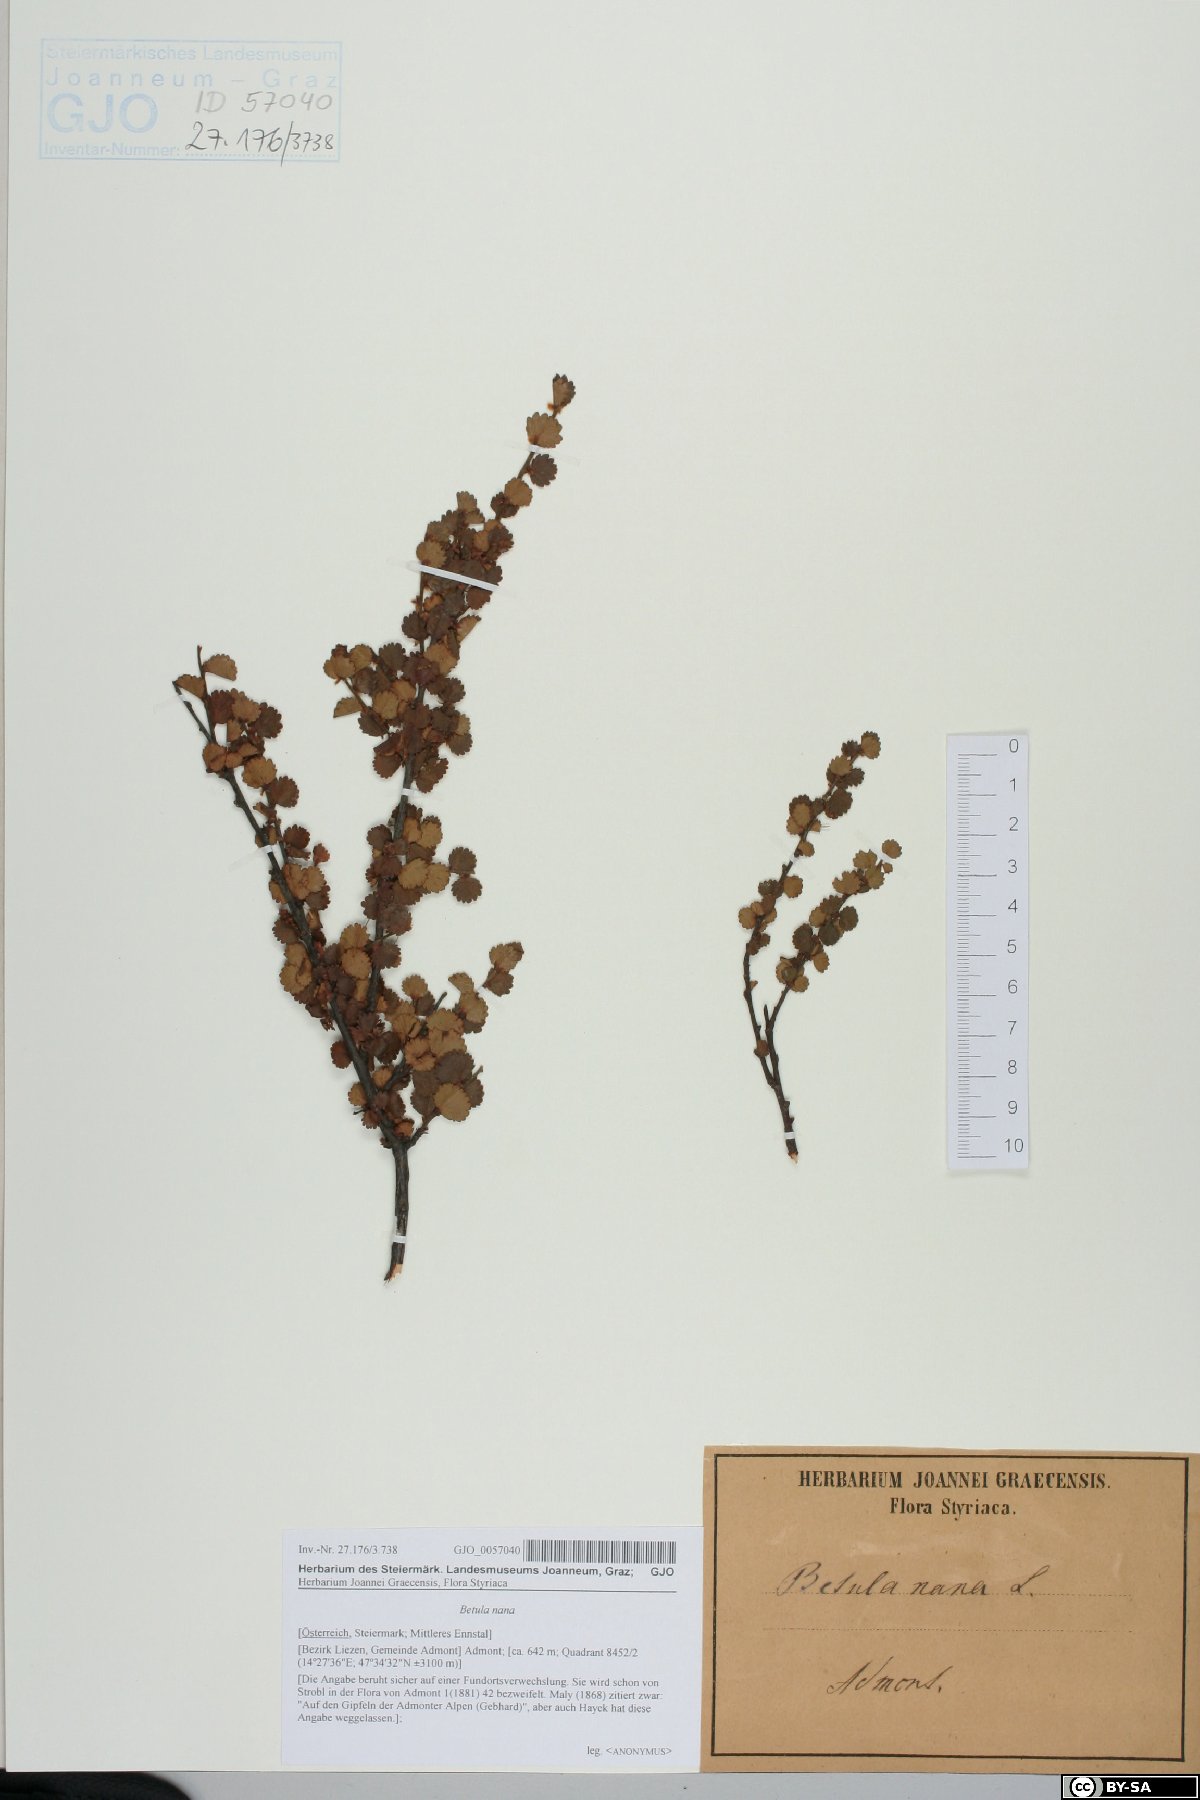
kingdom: Plantae
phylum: Tracheophyta
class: Magnoliopsida
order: Fagales
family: Betulaceae
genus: Betula
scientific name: Betula nana
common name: Arctic dwarf birch
